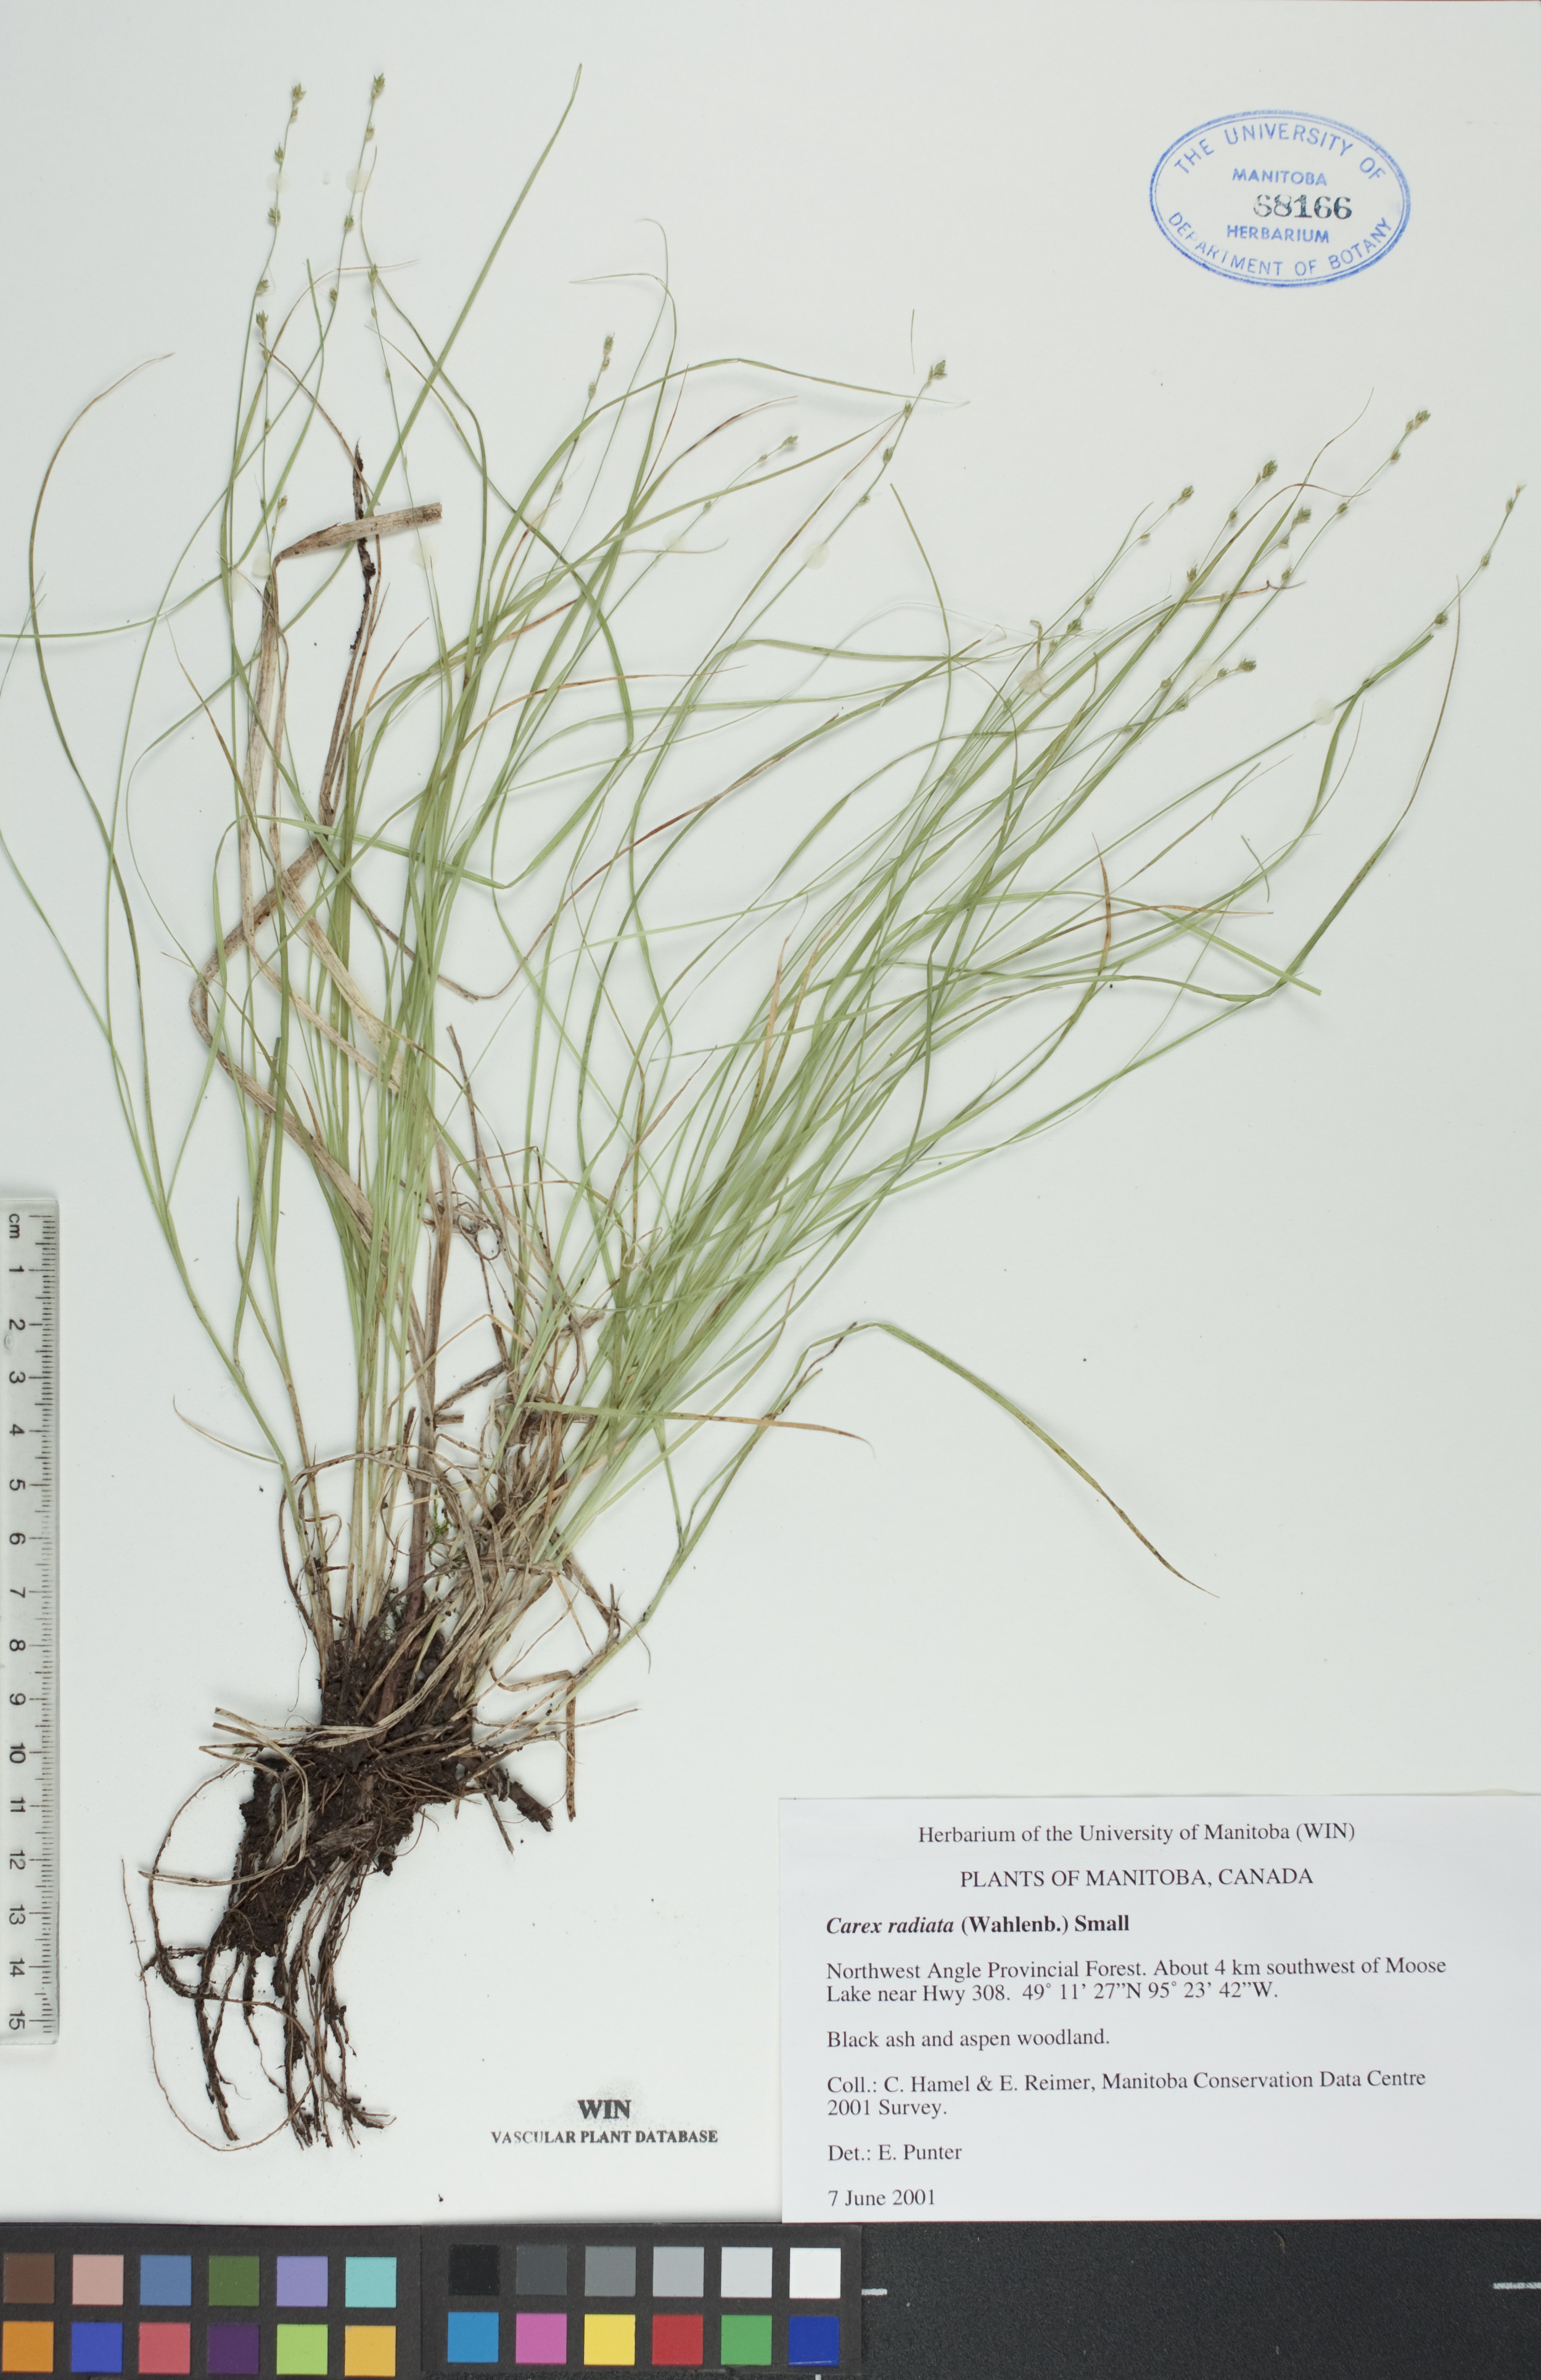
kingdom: Plantae
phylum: Tracheophyta
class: Liliopsida
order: Poales
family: Cyperaceae
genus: Carex
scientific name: Carex radiata
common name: Eastern star sedge
